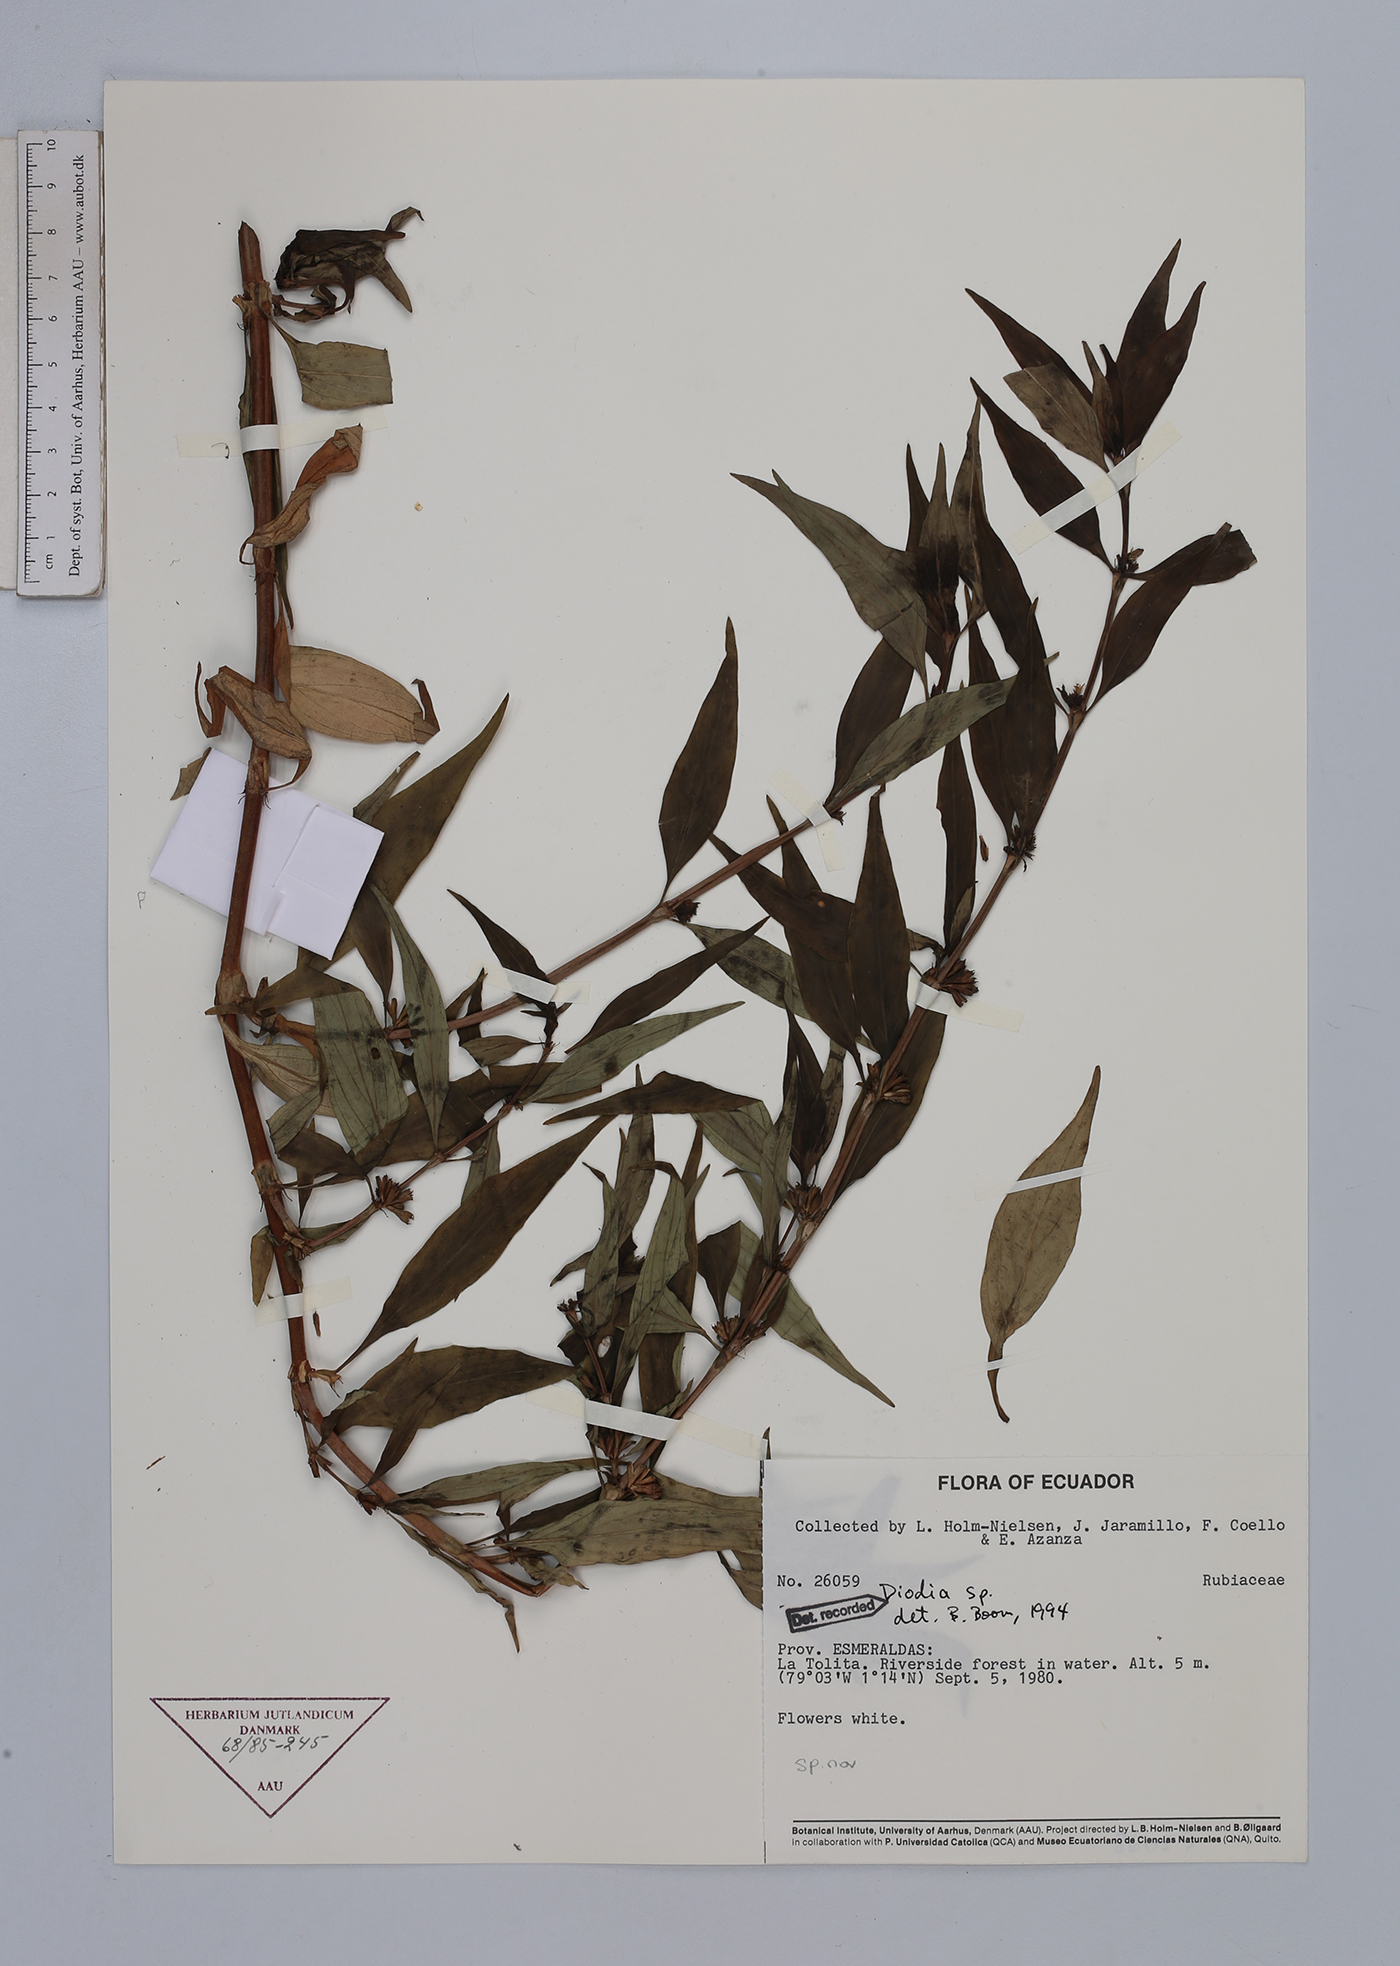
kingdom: Plantae
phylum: Tracheophyta
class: Magnoliopsida
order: Gentianales
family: Rubiaceae
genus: Diodia
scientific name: Diodia
